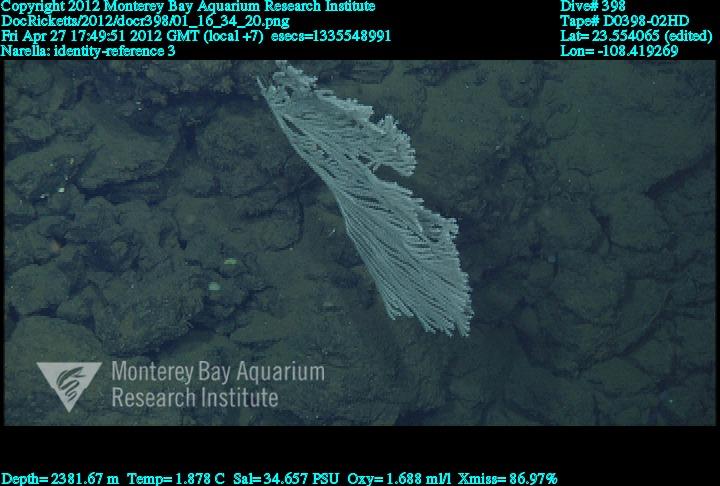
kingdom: Animalia
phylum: Cnidaria
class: Anthozoa
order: Scleralcyonacea
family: Primnoidae
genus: Narella
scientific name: Narella
